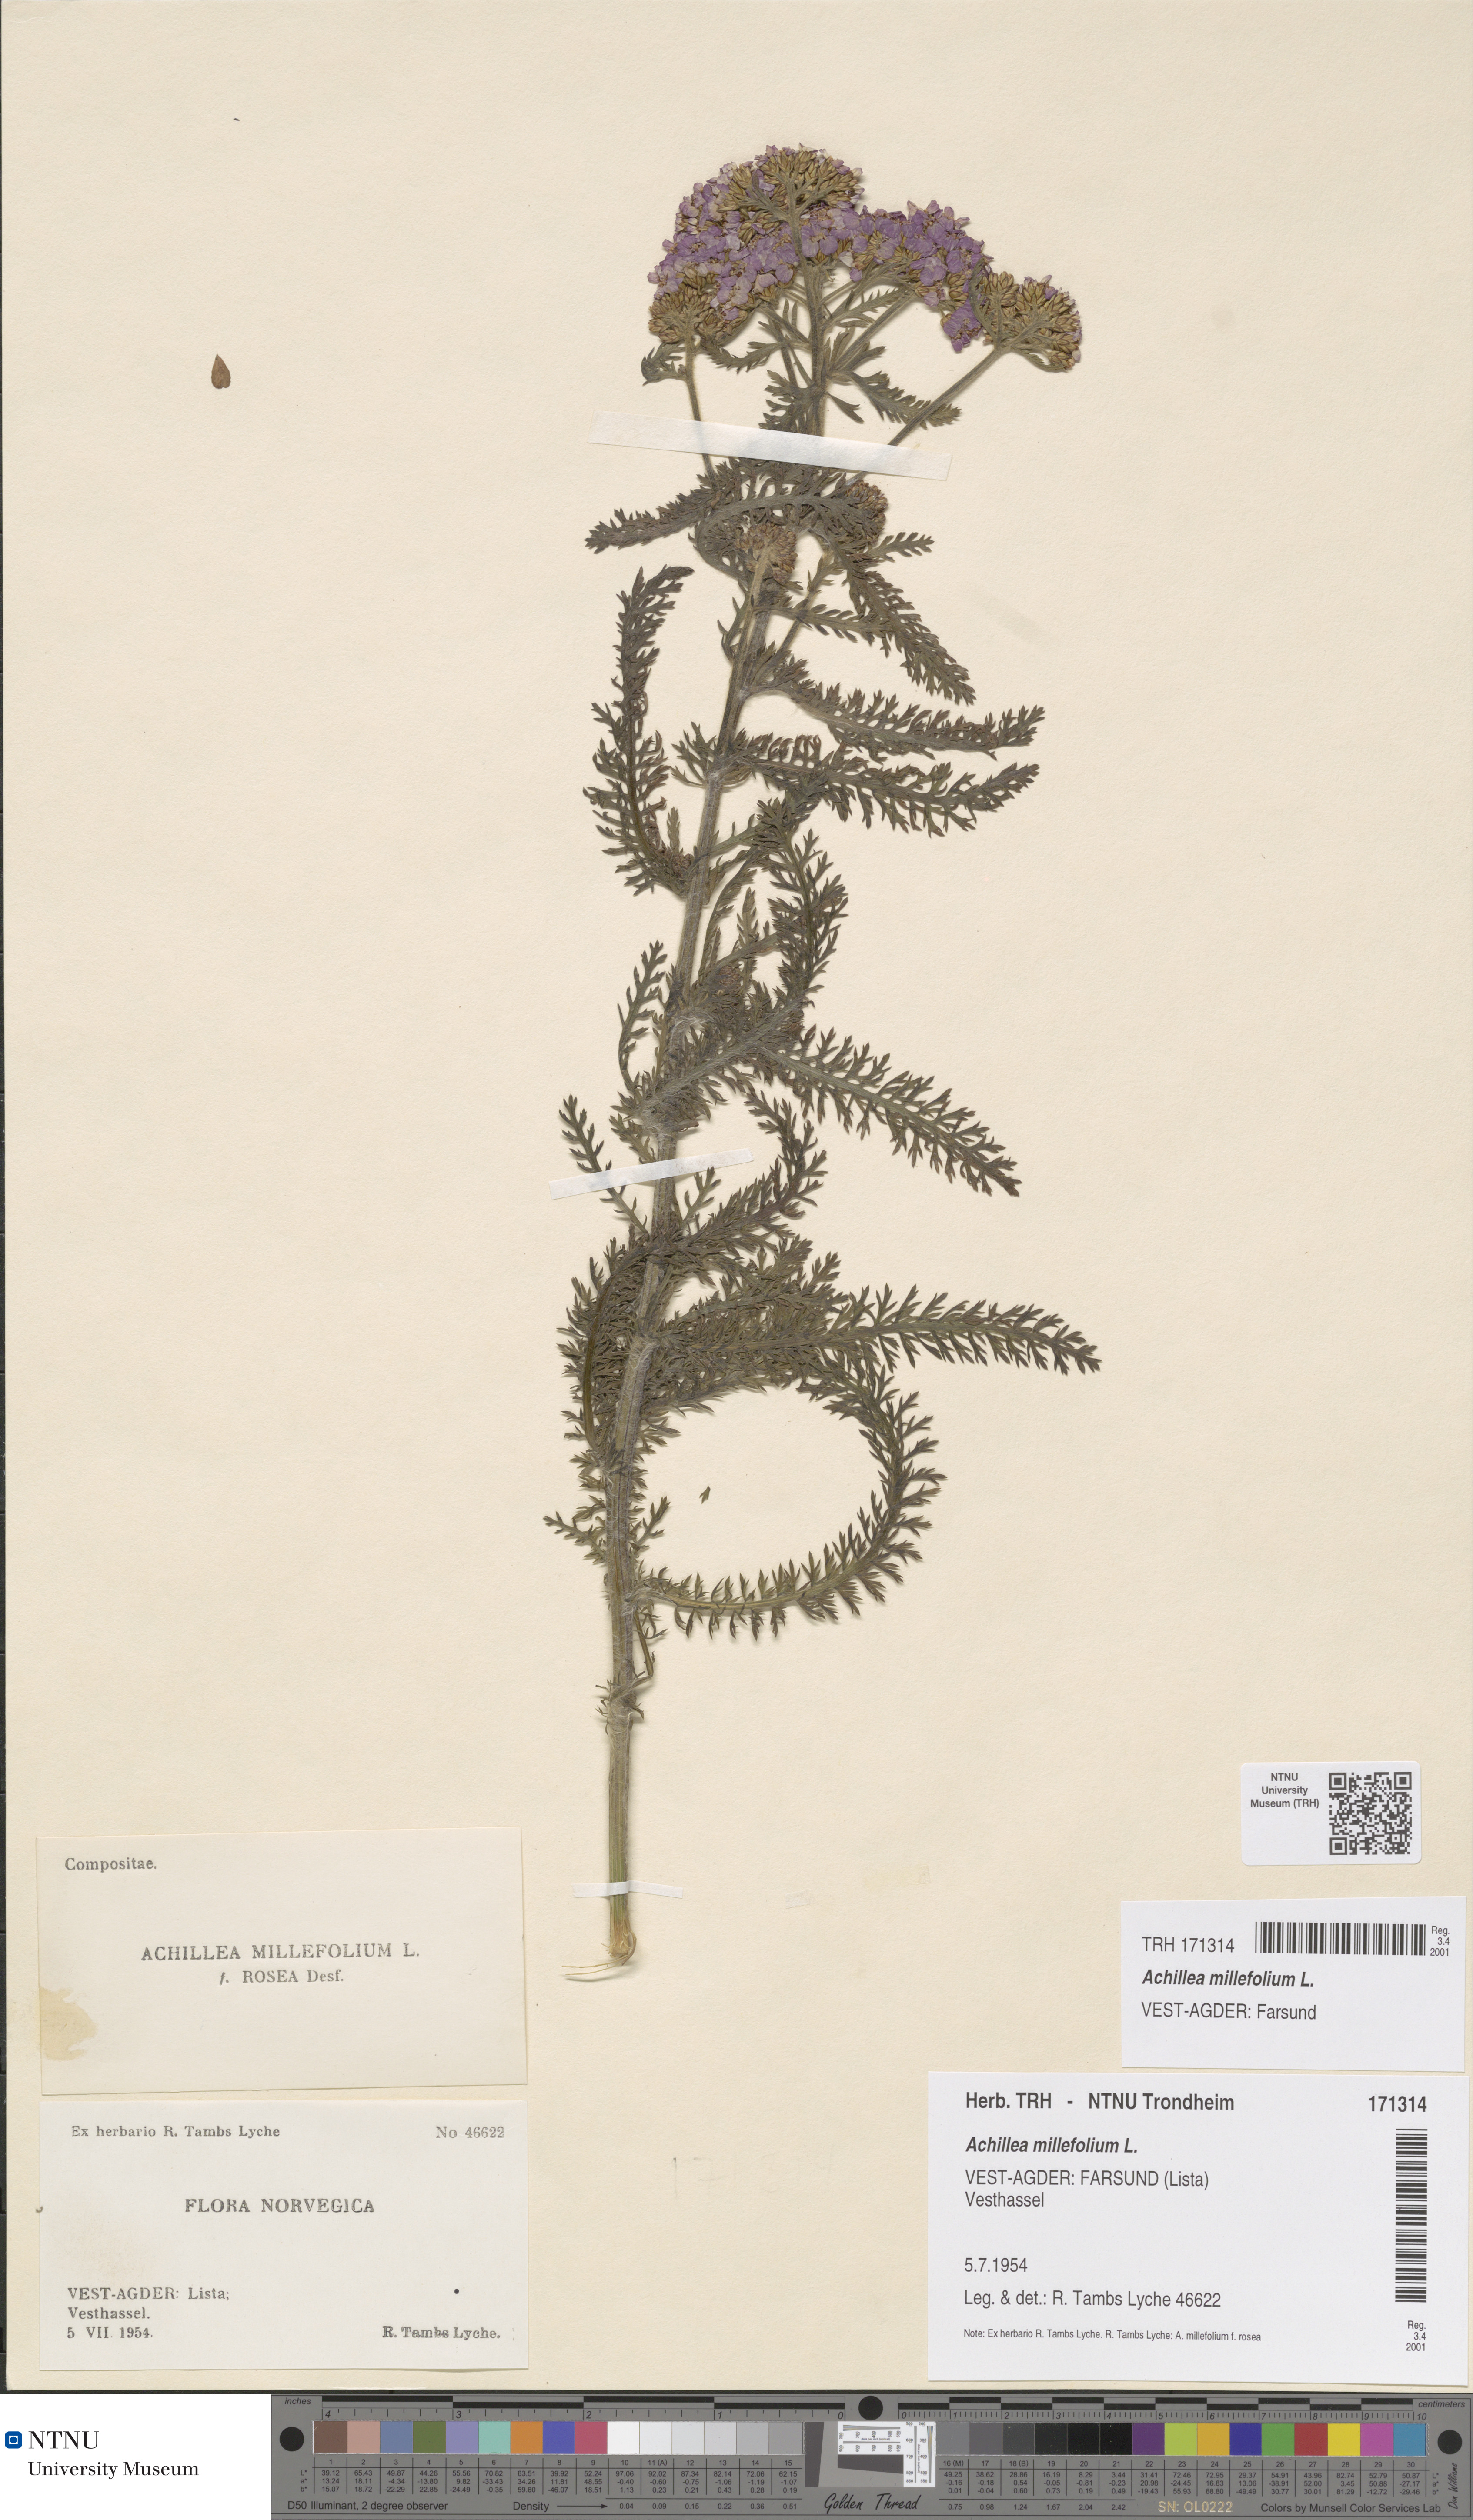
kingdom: Plantae
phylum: Tracheophyta
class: Magnoliopsida
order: Asterales
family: Asteraceae
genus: Achillea
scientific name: Achillea millefolium
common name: Yarrow
